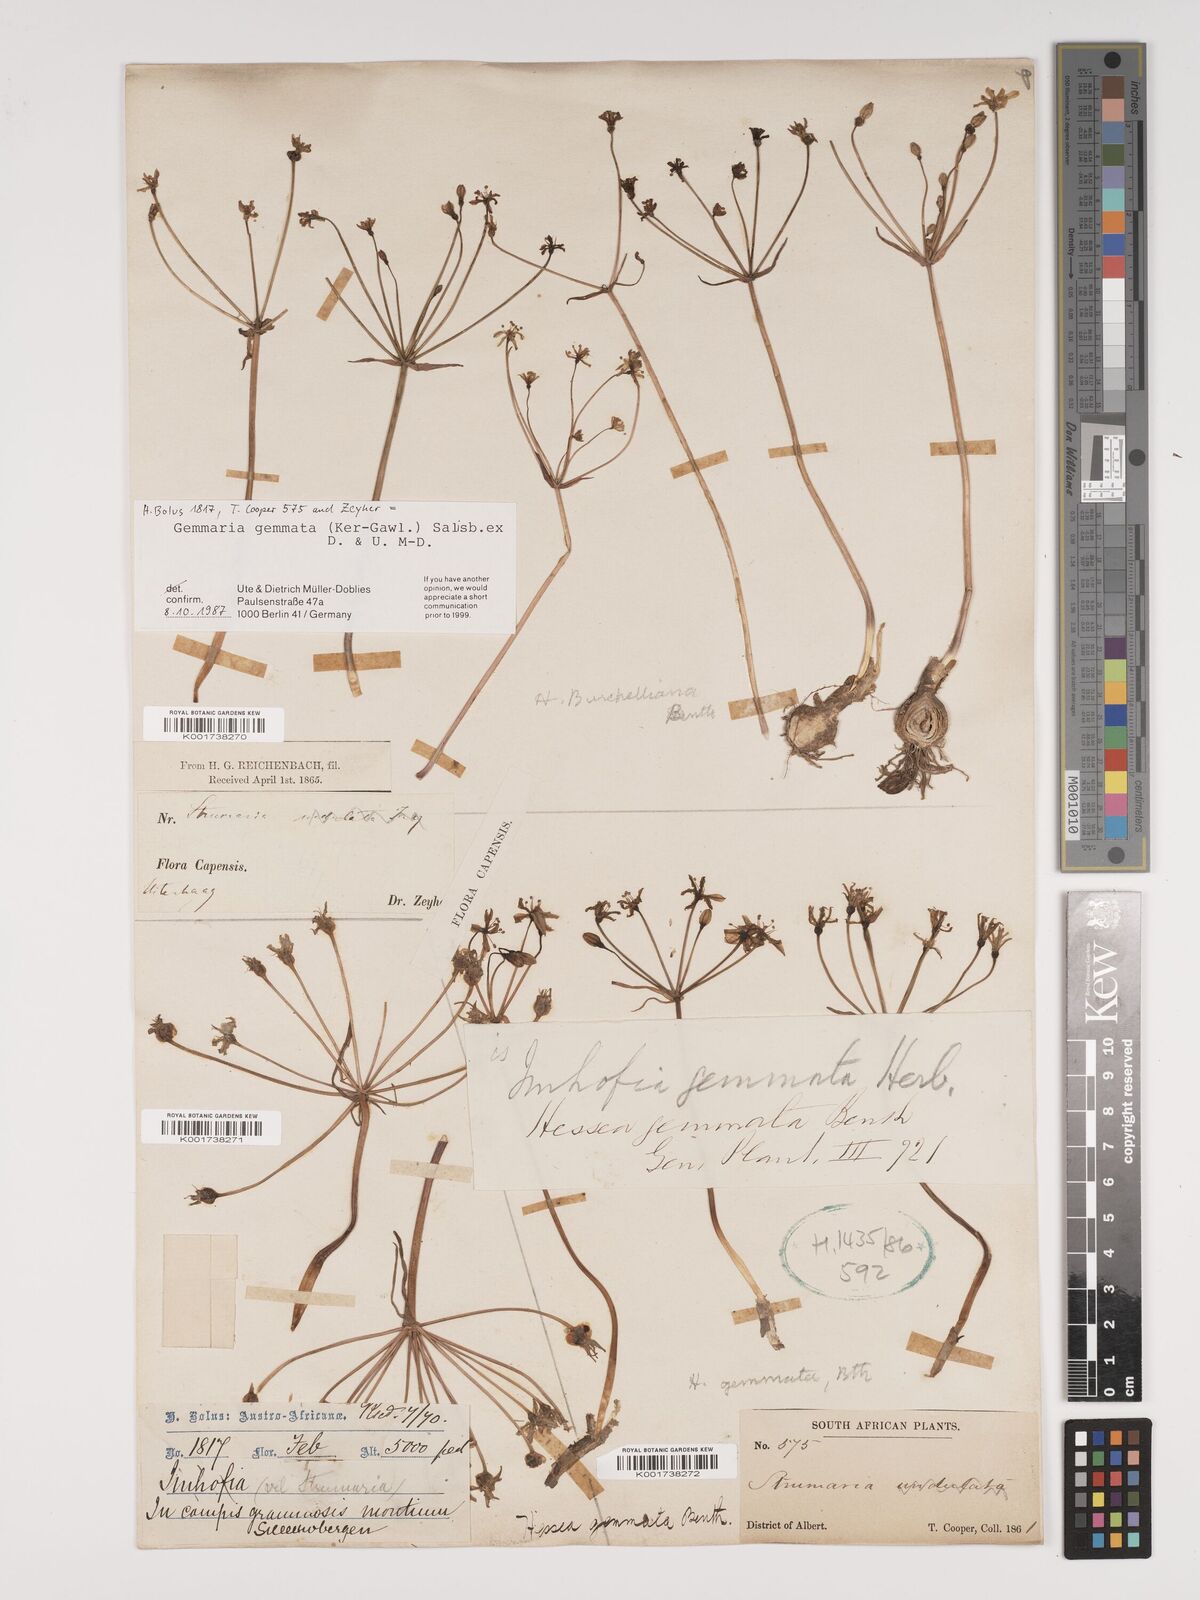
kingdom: Plantae
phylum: Tracheophyta
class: Liliopsida
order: Asparagales
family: Amaryllidaceae
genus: Strumaria
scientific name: Strumaria gemmata
